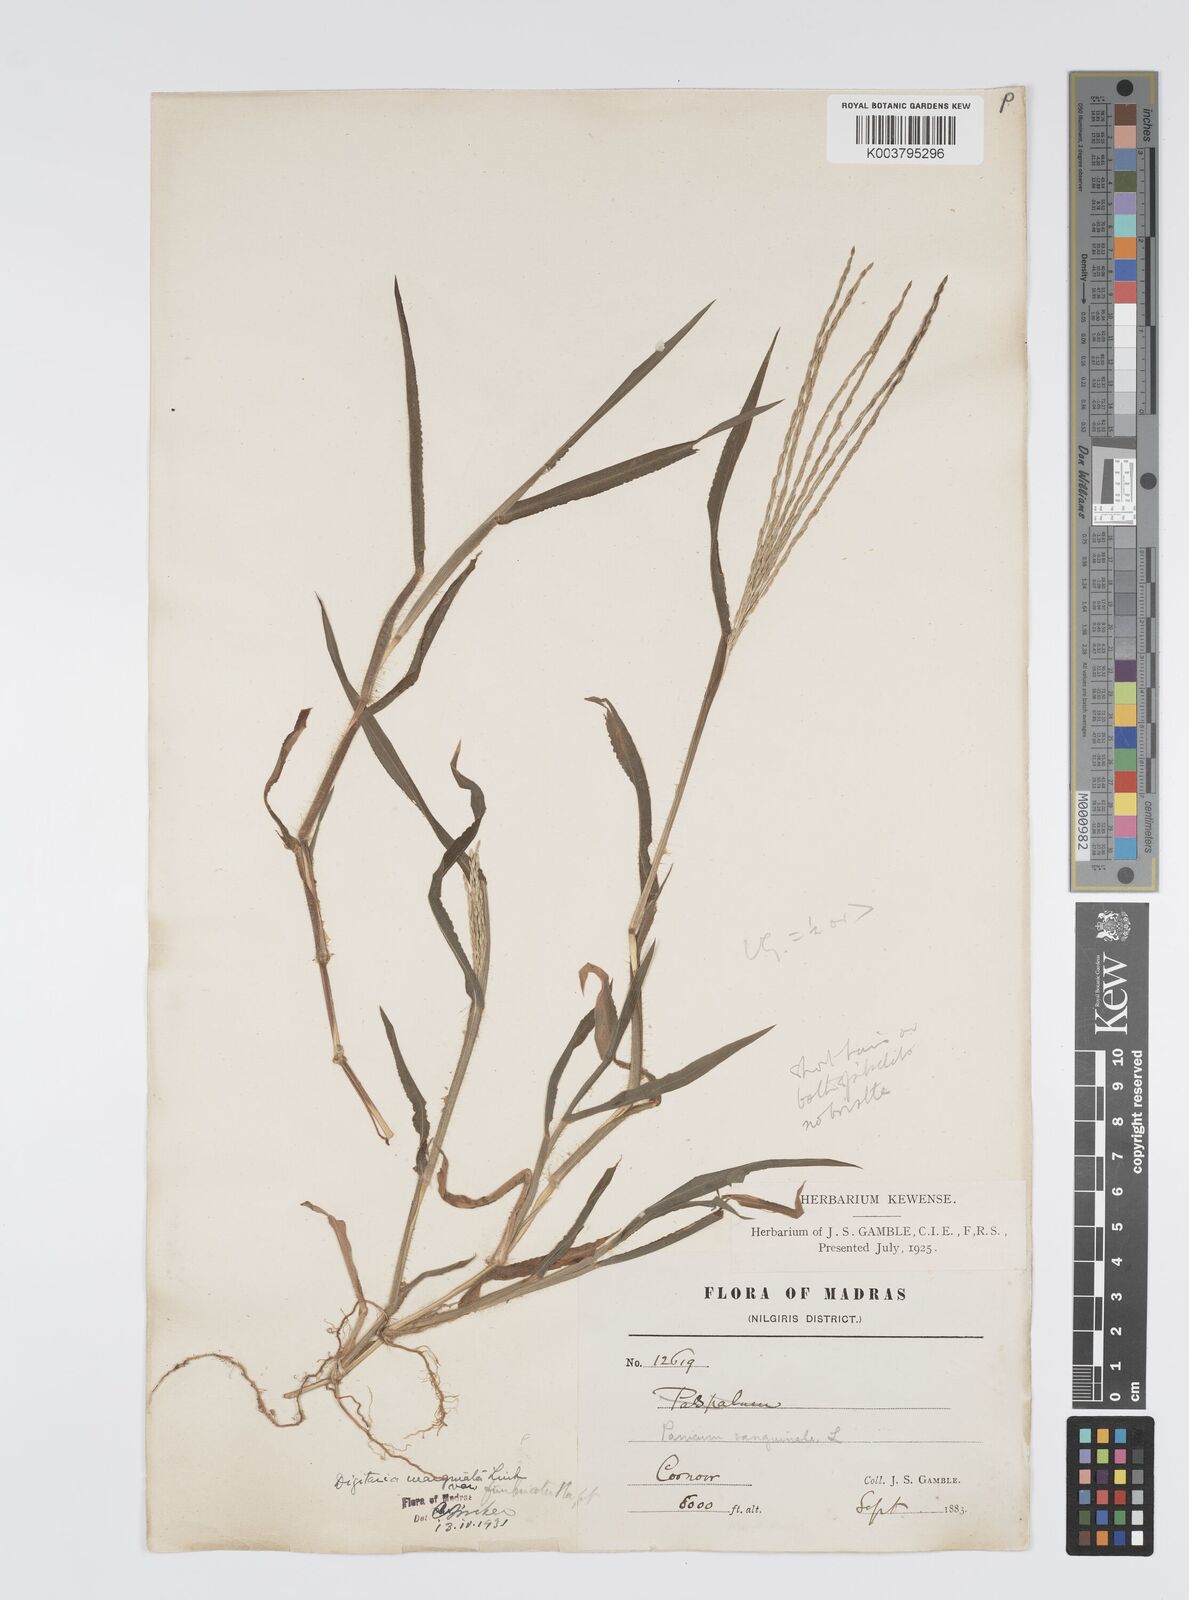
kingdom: Plantae
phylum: Tracheophyta
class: Liliopsida
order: Poales
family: Poaceae
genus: Digitaria
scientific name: Digitaria spec
